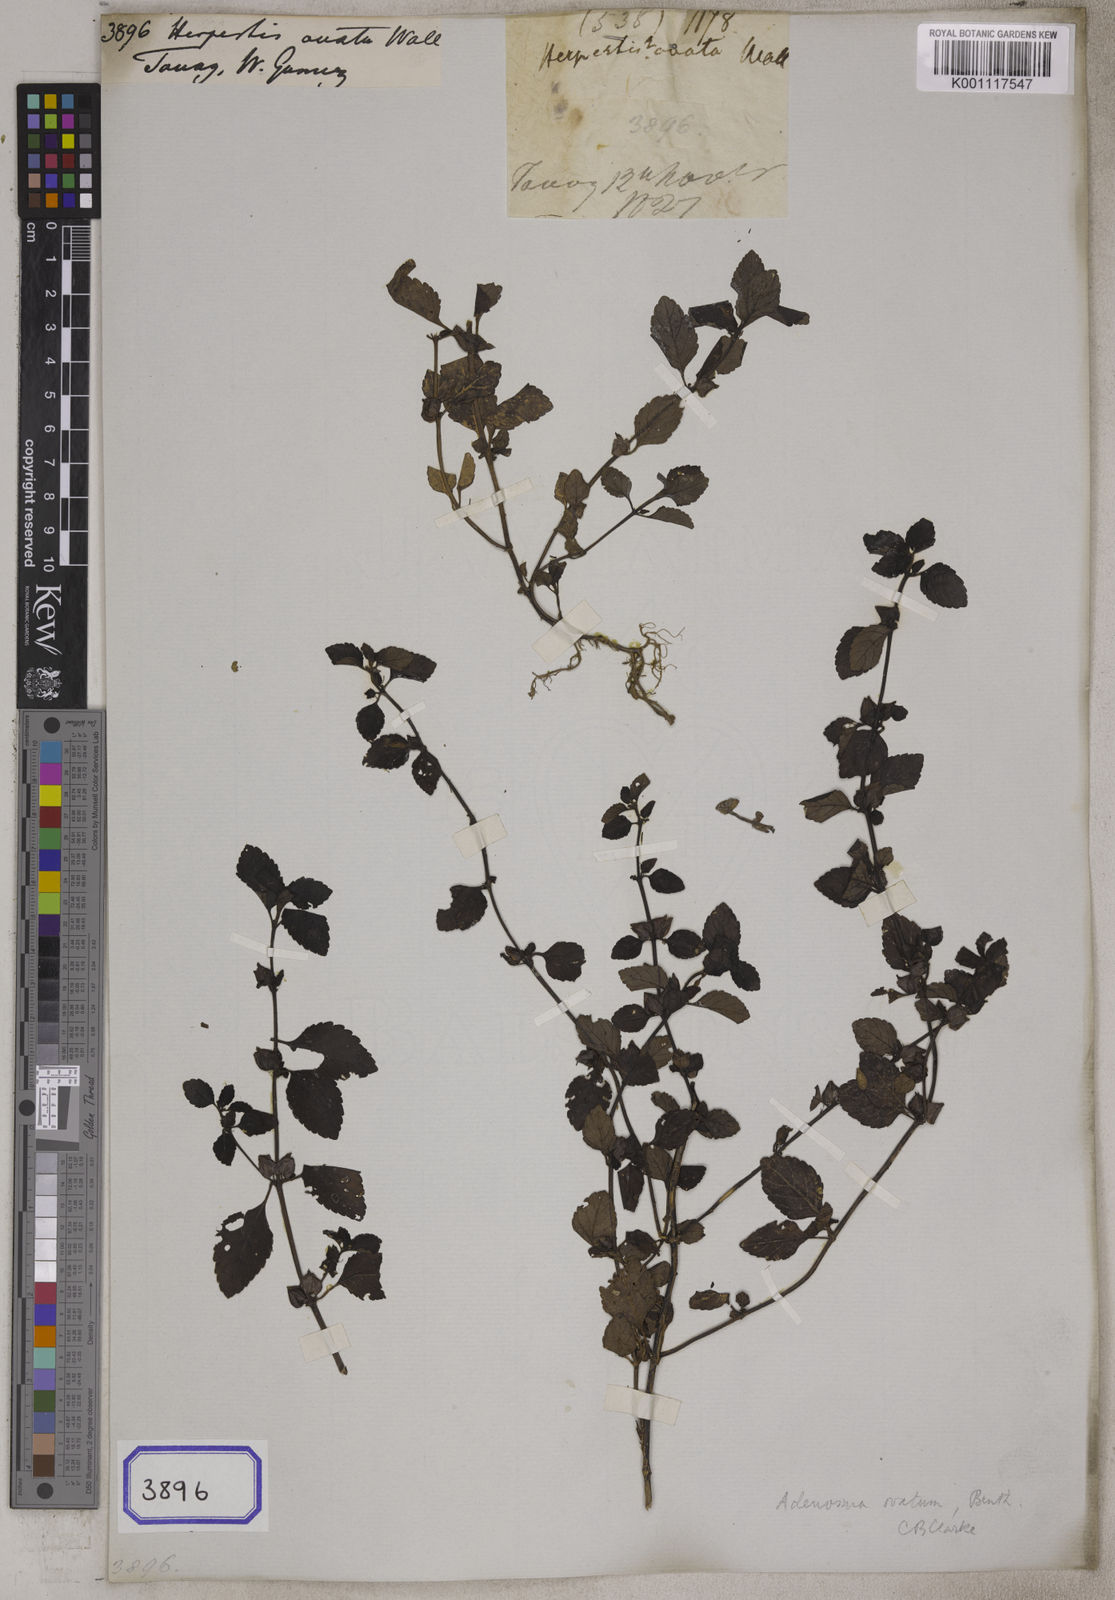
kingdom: Plantae
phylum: Tracheophyta
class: Magnoliopsida
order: Lamiales
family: Plantaginaceae
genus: Adenosma
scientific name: Adenosma javanica
